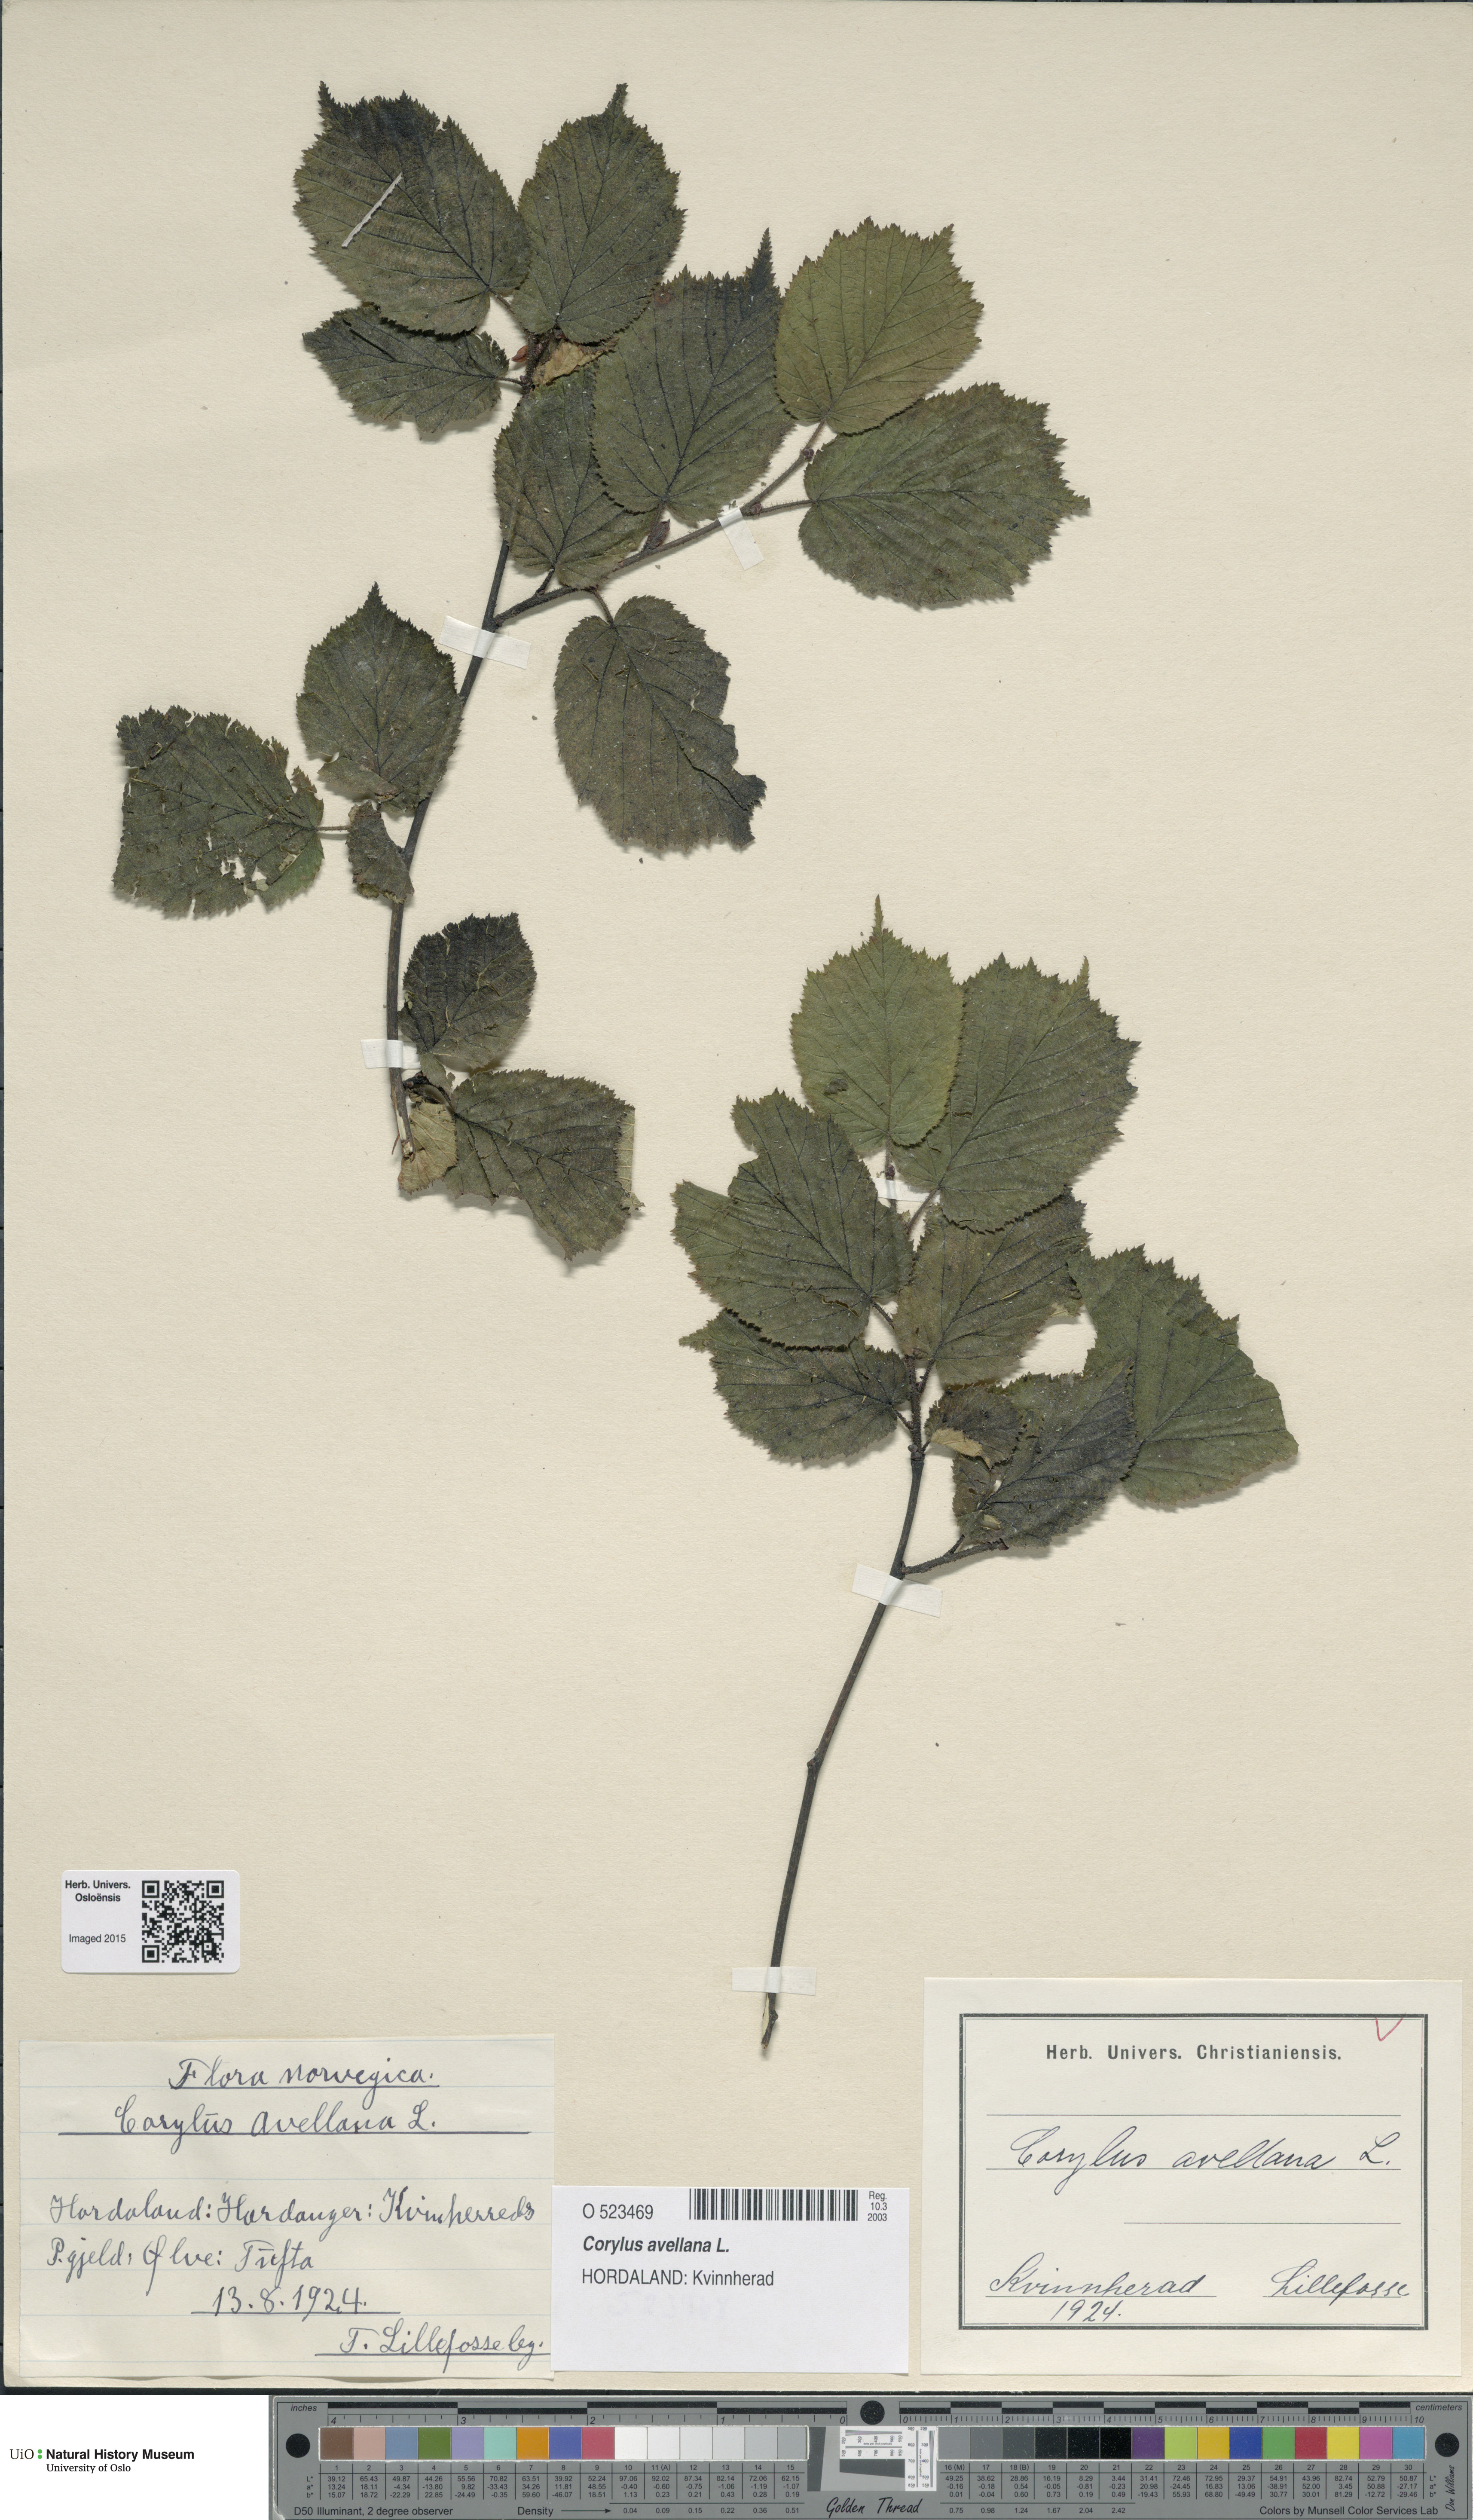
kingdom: Plantae
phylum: Tracheophyta
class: Magnoliopsida
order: Fagales
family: Betulaceae
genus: Corylus
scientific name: Corylus avellana
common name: European hazel
